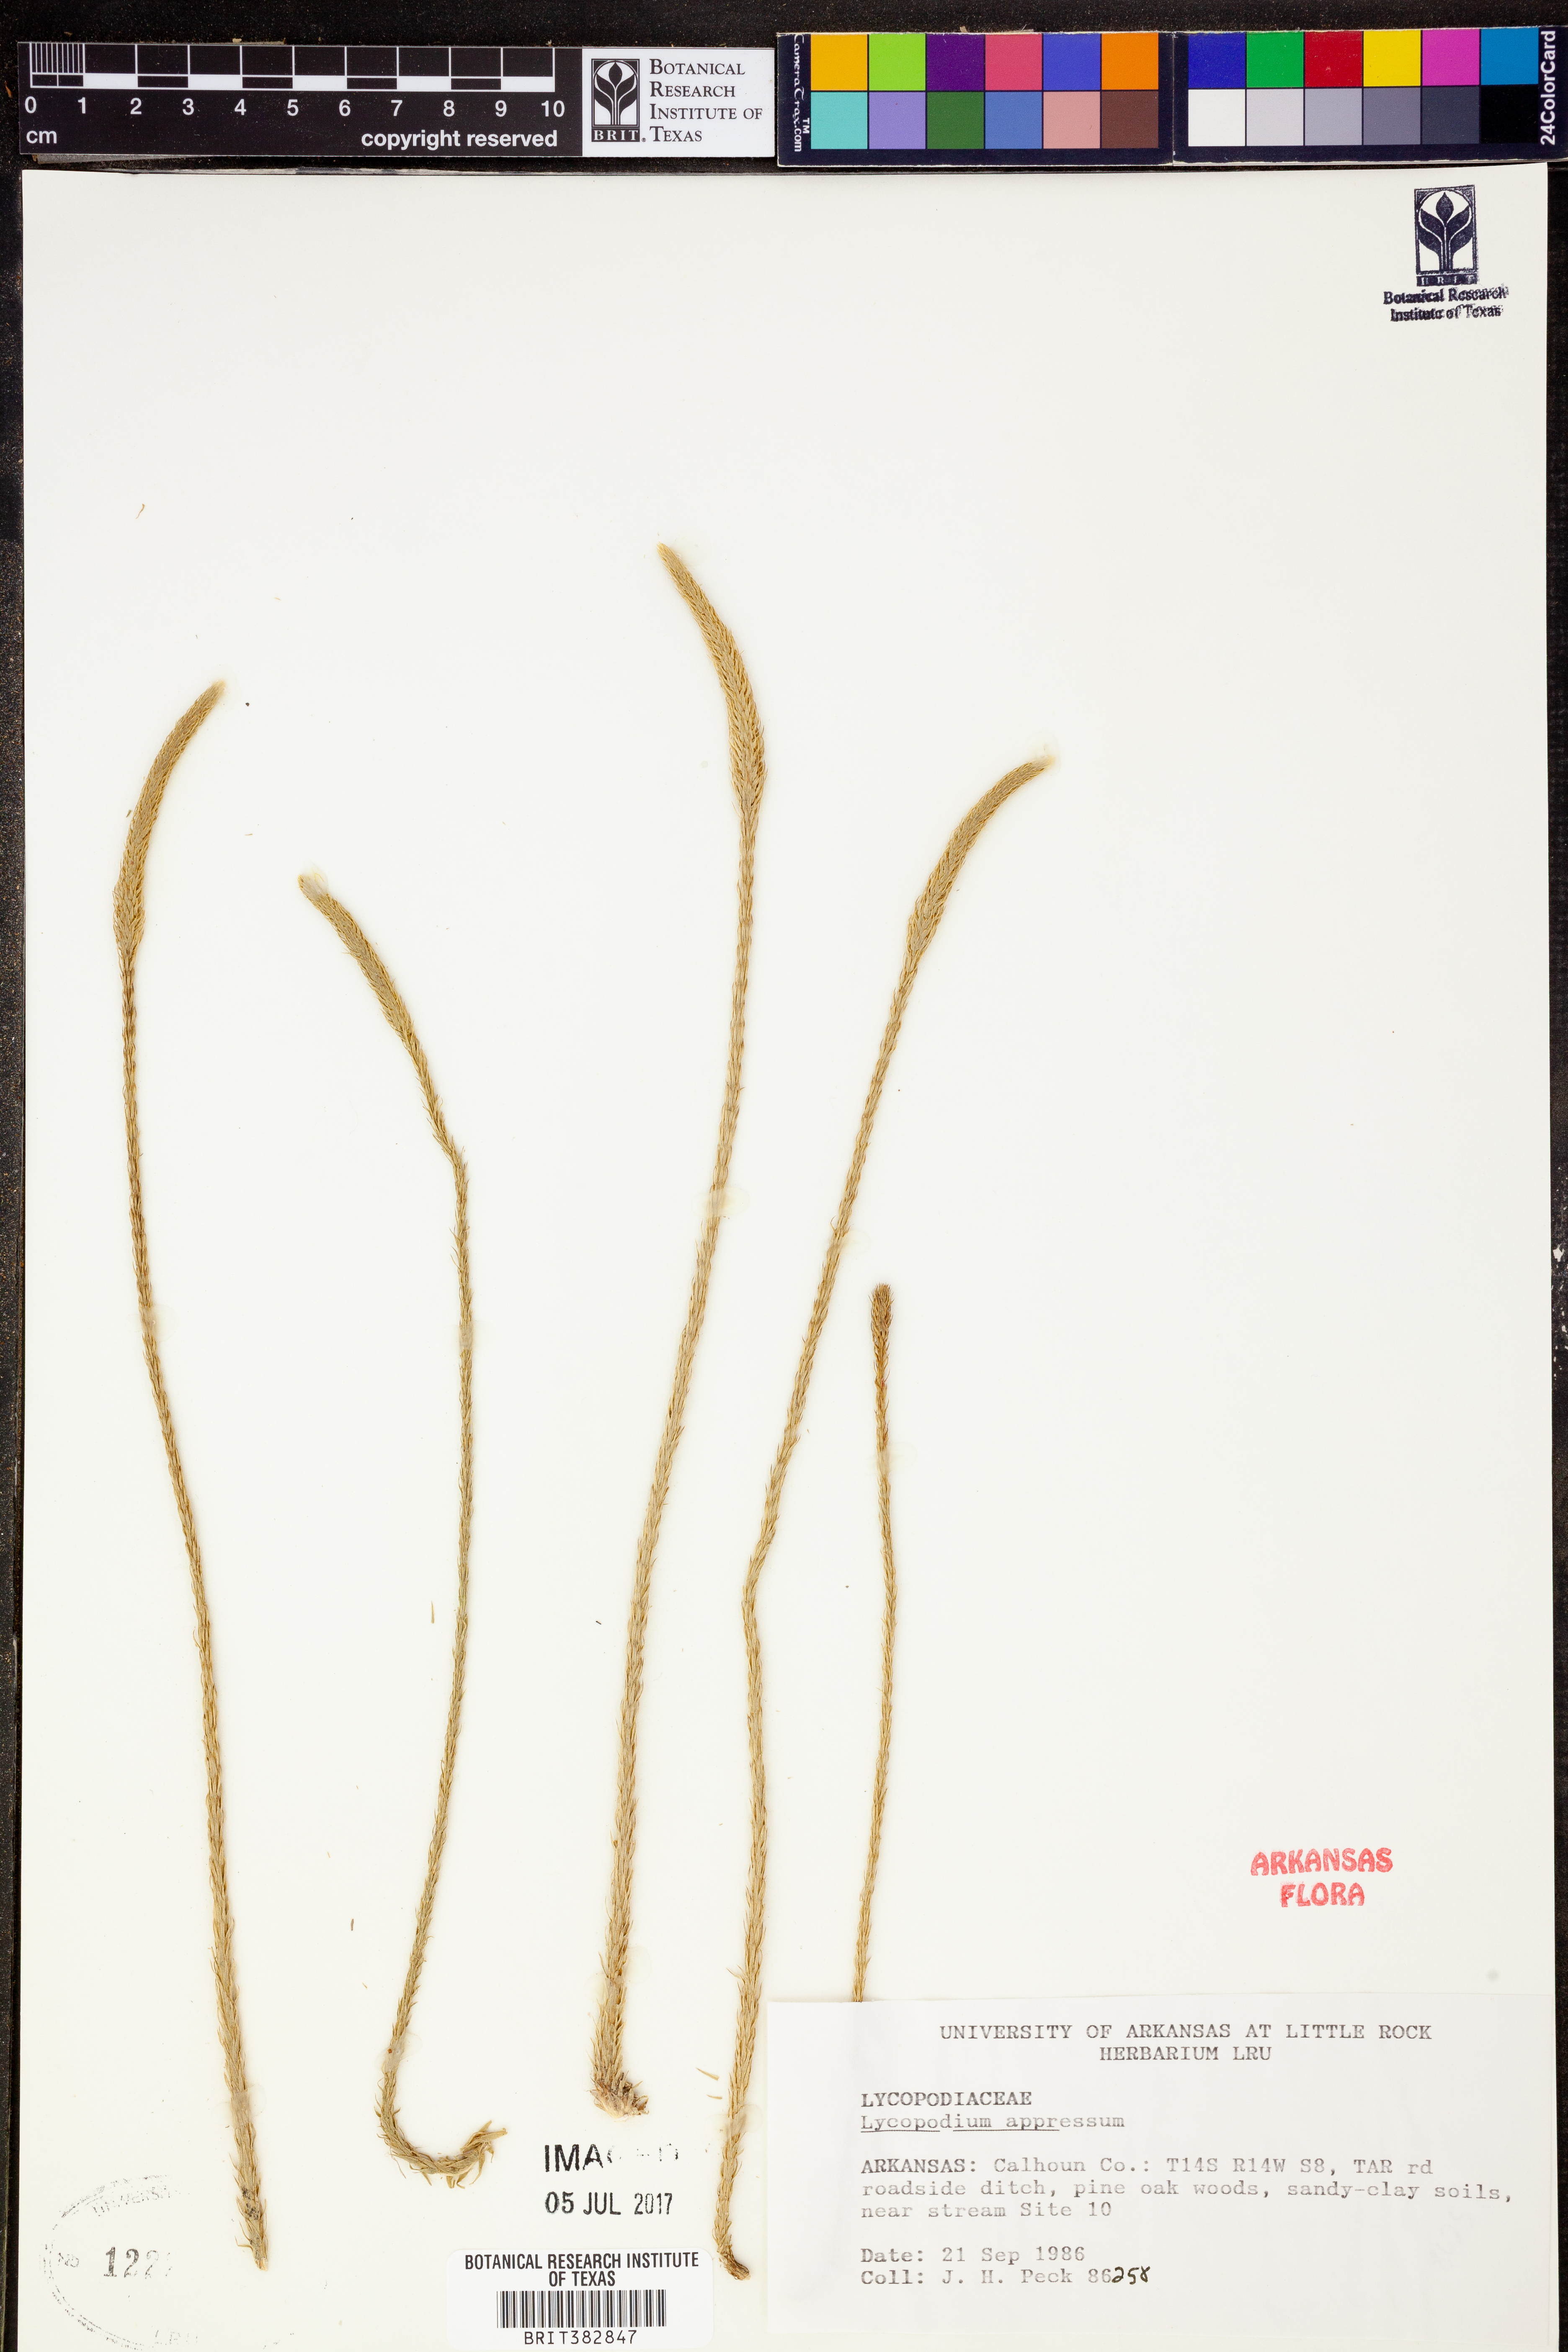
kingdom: Plantae
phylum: Tracheophyta
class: Lycopodiopsida
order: Lycopodiales
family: Lycopodiaceae
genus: Lycopodiella
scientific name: Lycopodiella appressa
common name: Appressed bog clubmoss
